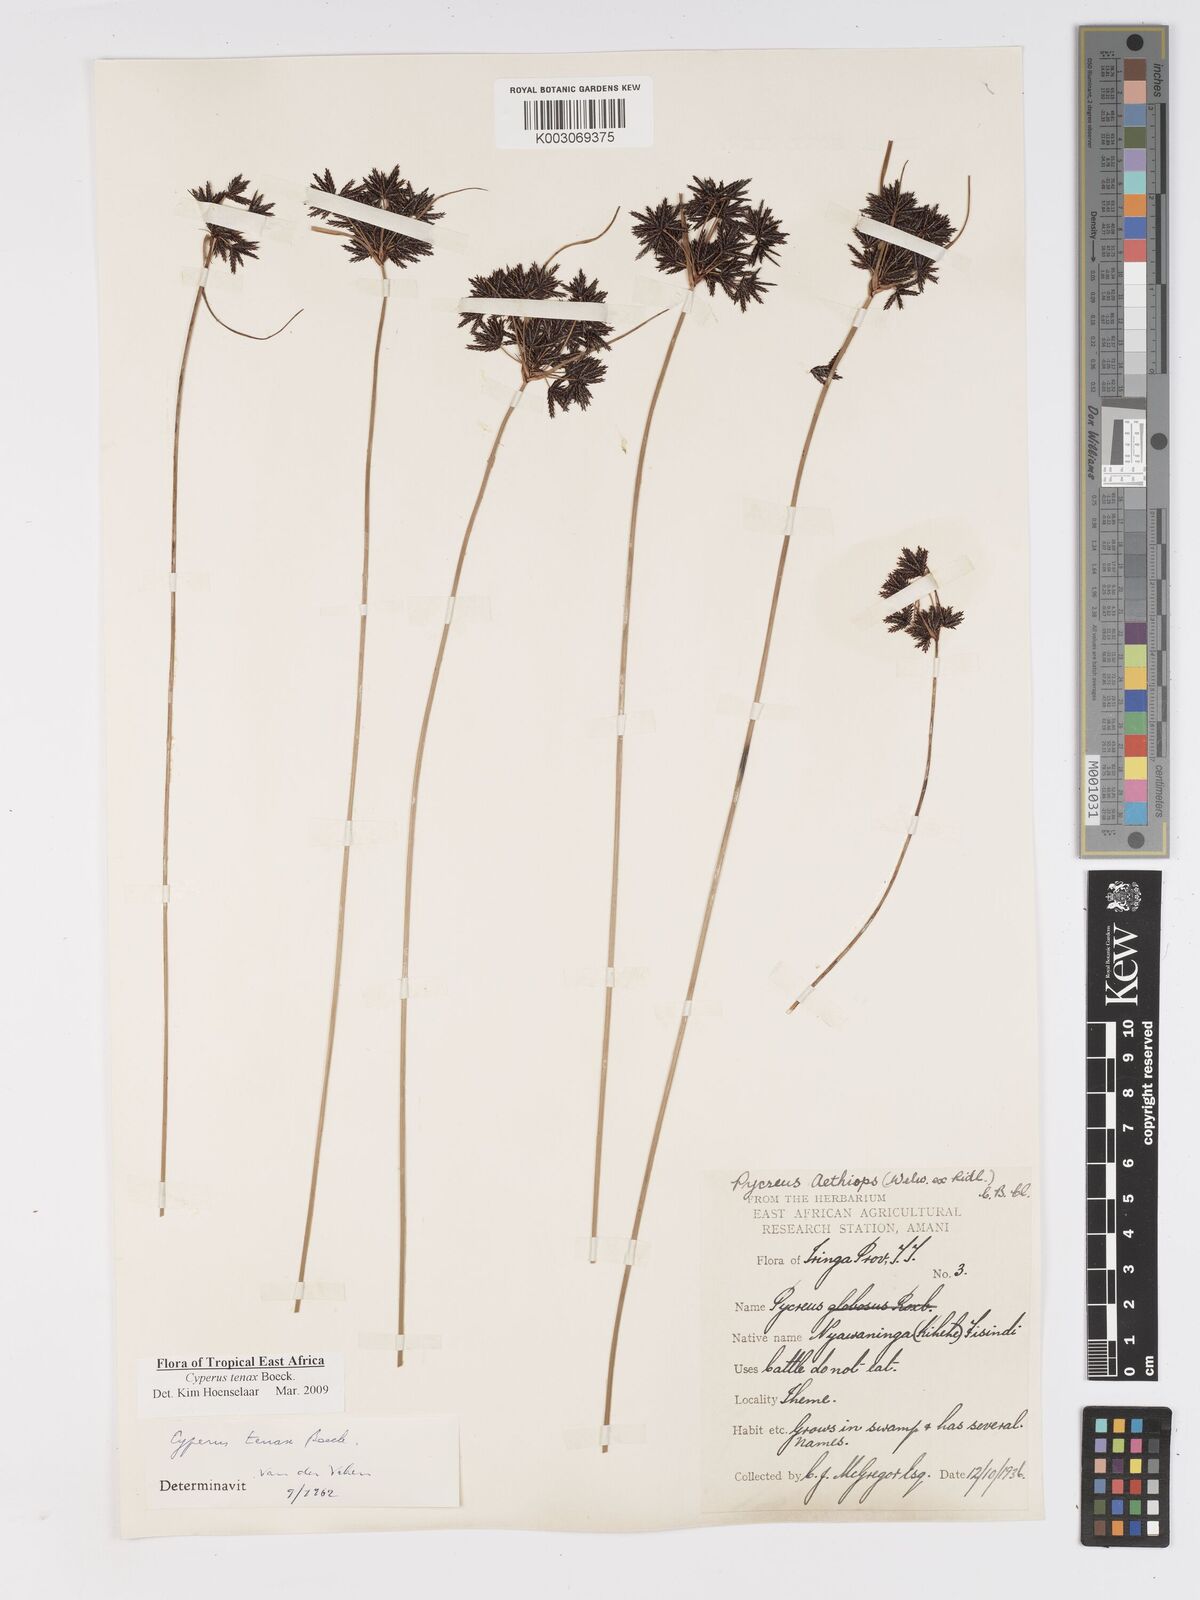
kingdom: Plantae
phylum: Tracheophyta
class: Liliopsida
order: Poales
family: Cyperaceae
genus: Cyperus
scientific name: Cyperus tenax
